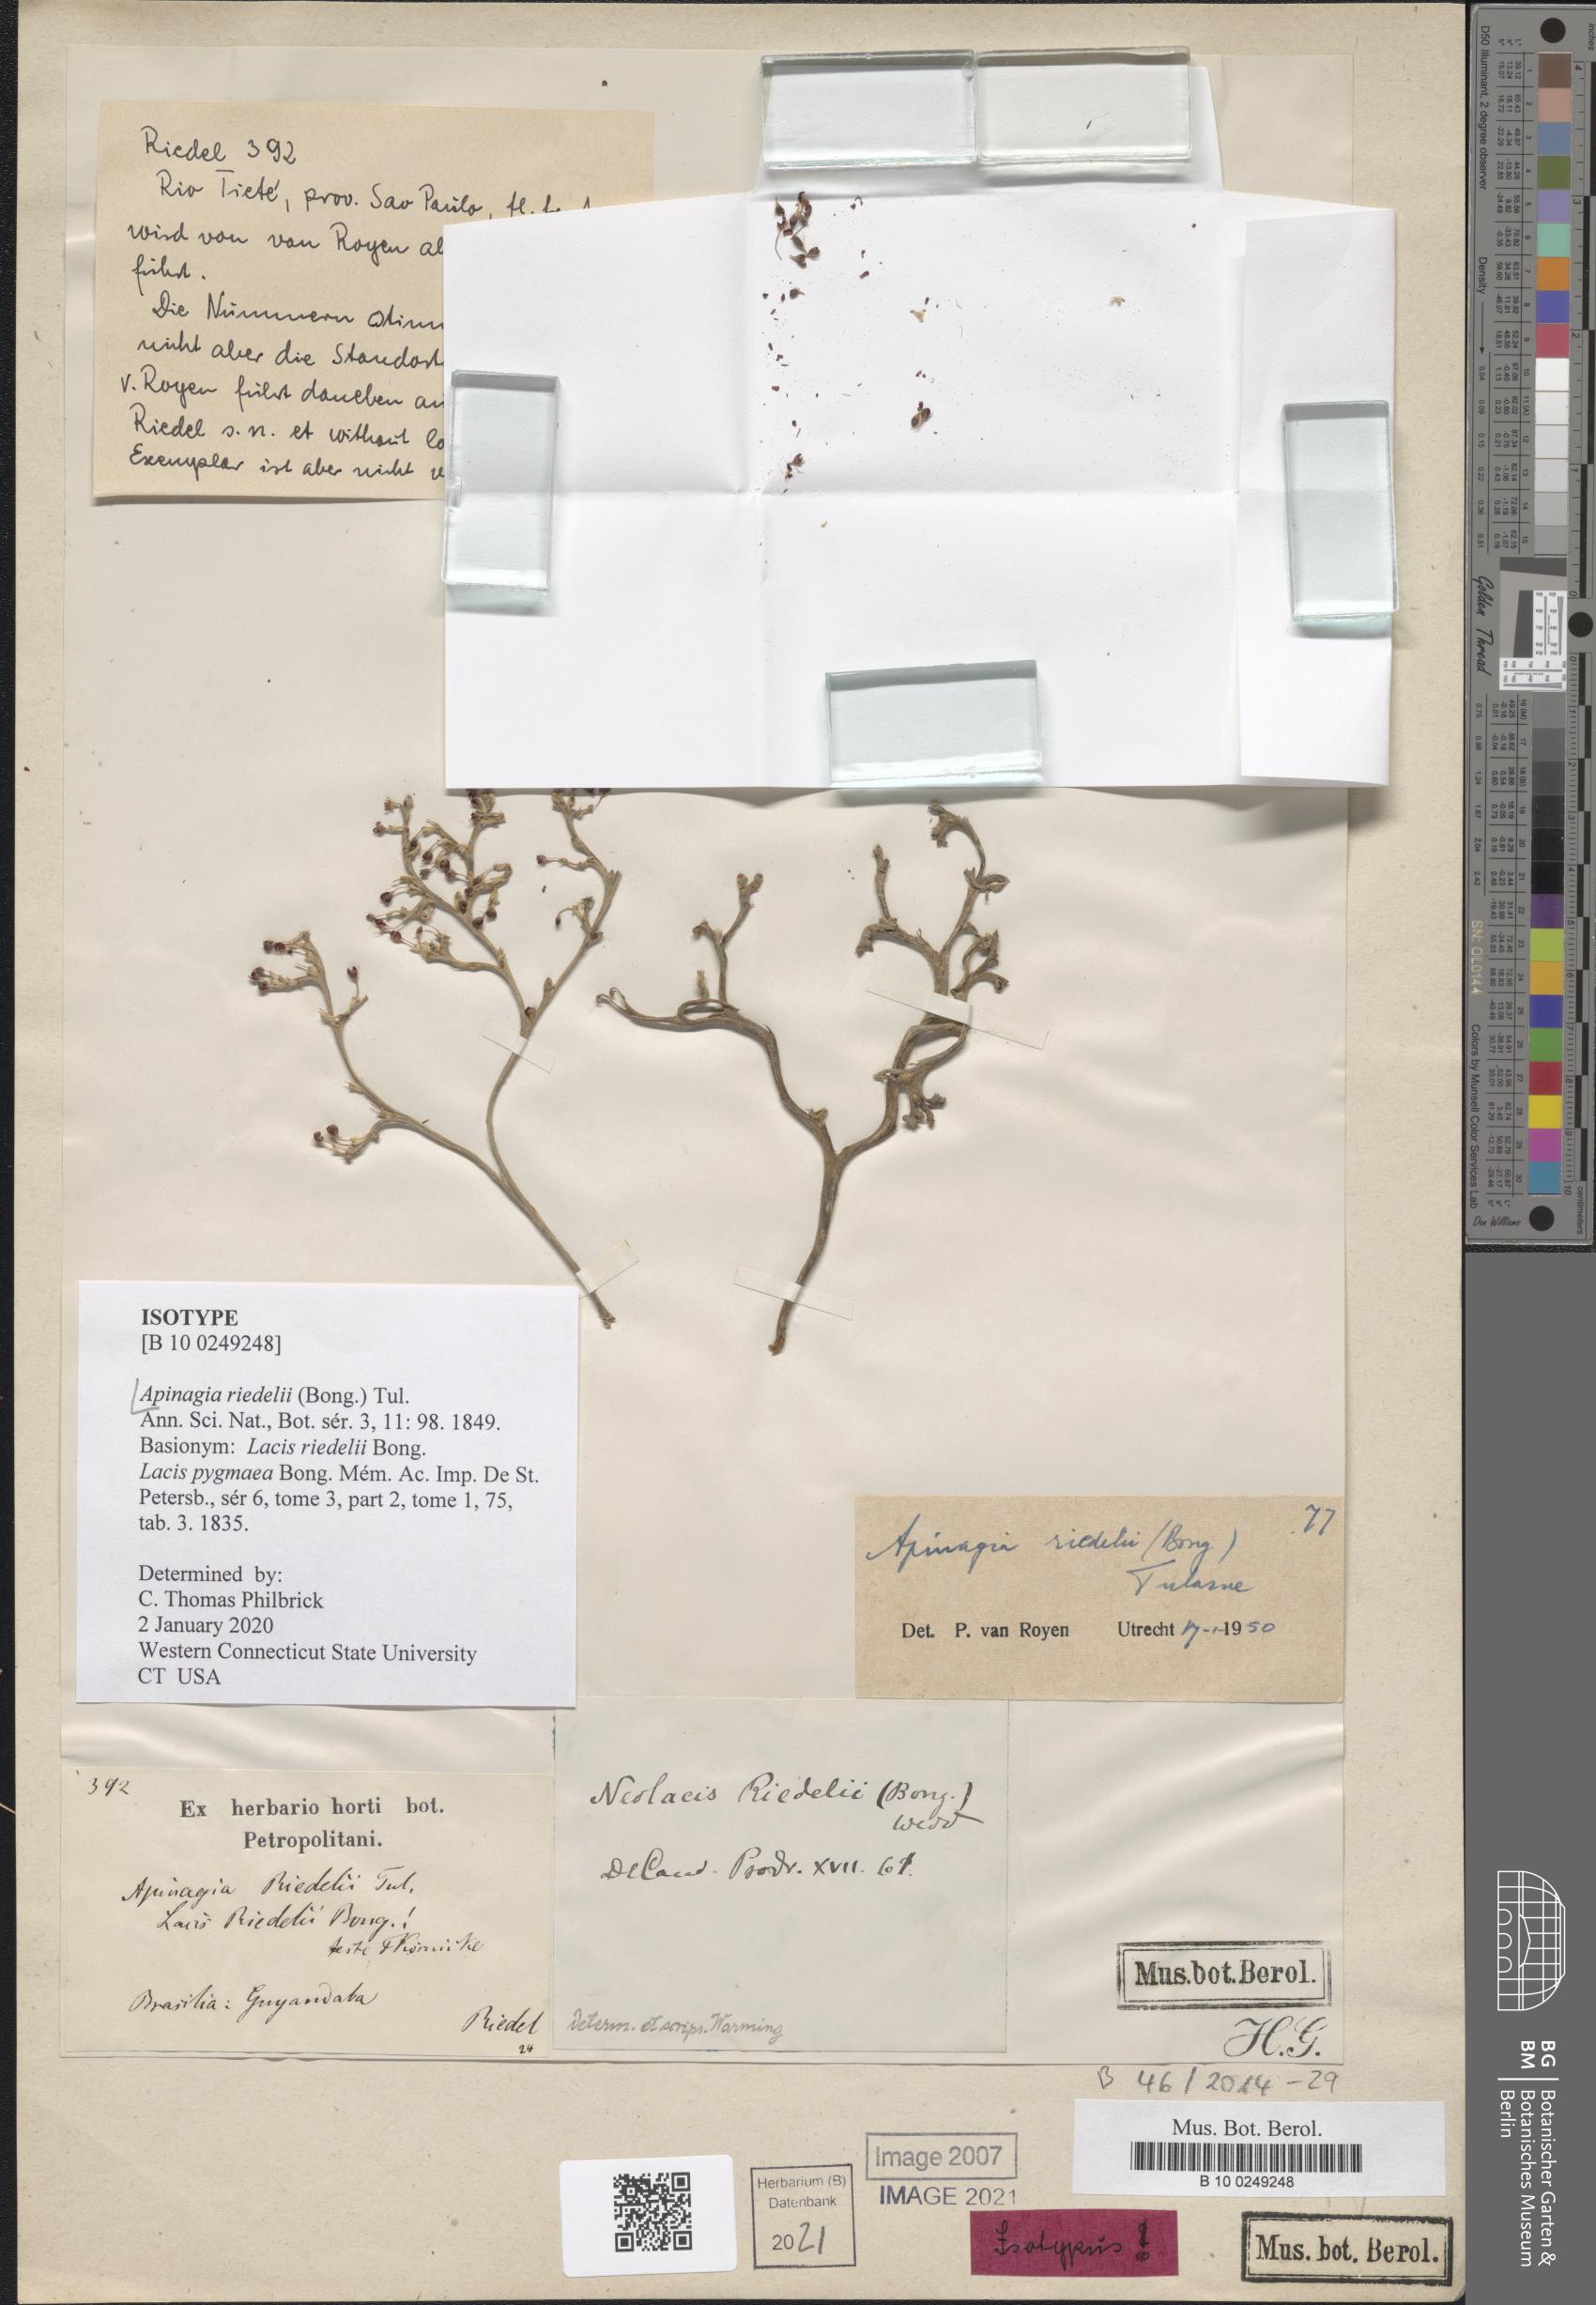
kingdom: Plantae
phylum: Tracheophyta
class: Magnoliopsida
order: Malpighiales
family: Podostemaceae
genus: Apinagia
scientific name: Apinagia riedelii
